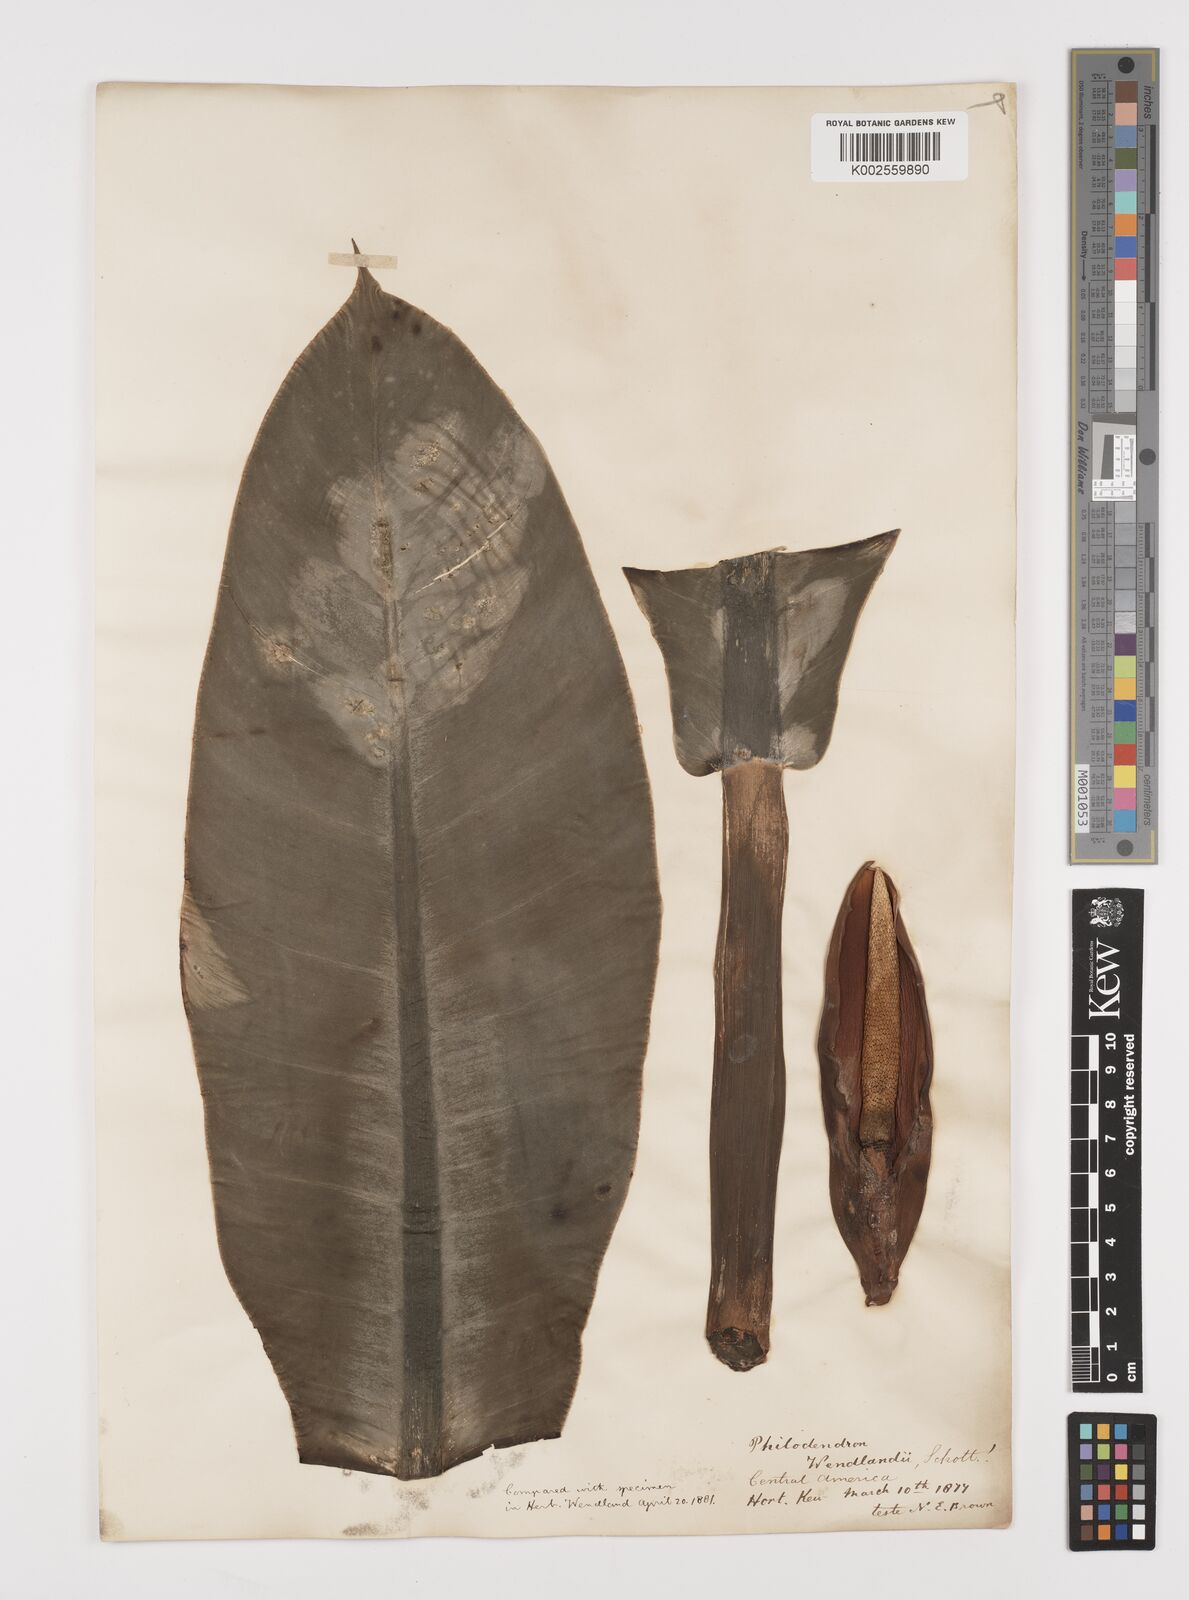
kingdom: Plantae
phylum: Tracheophyta
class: Liliopsida
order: Alismatales
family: Araceae
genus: Philodendron
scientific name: Philodendron wendlandii
